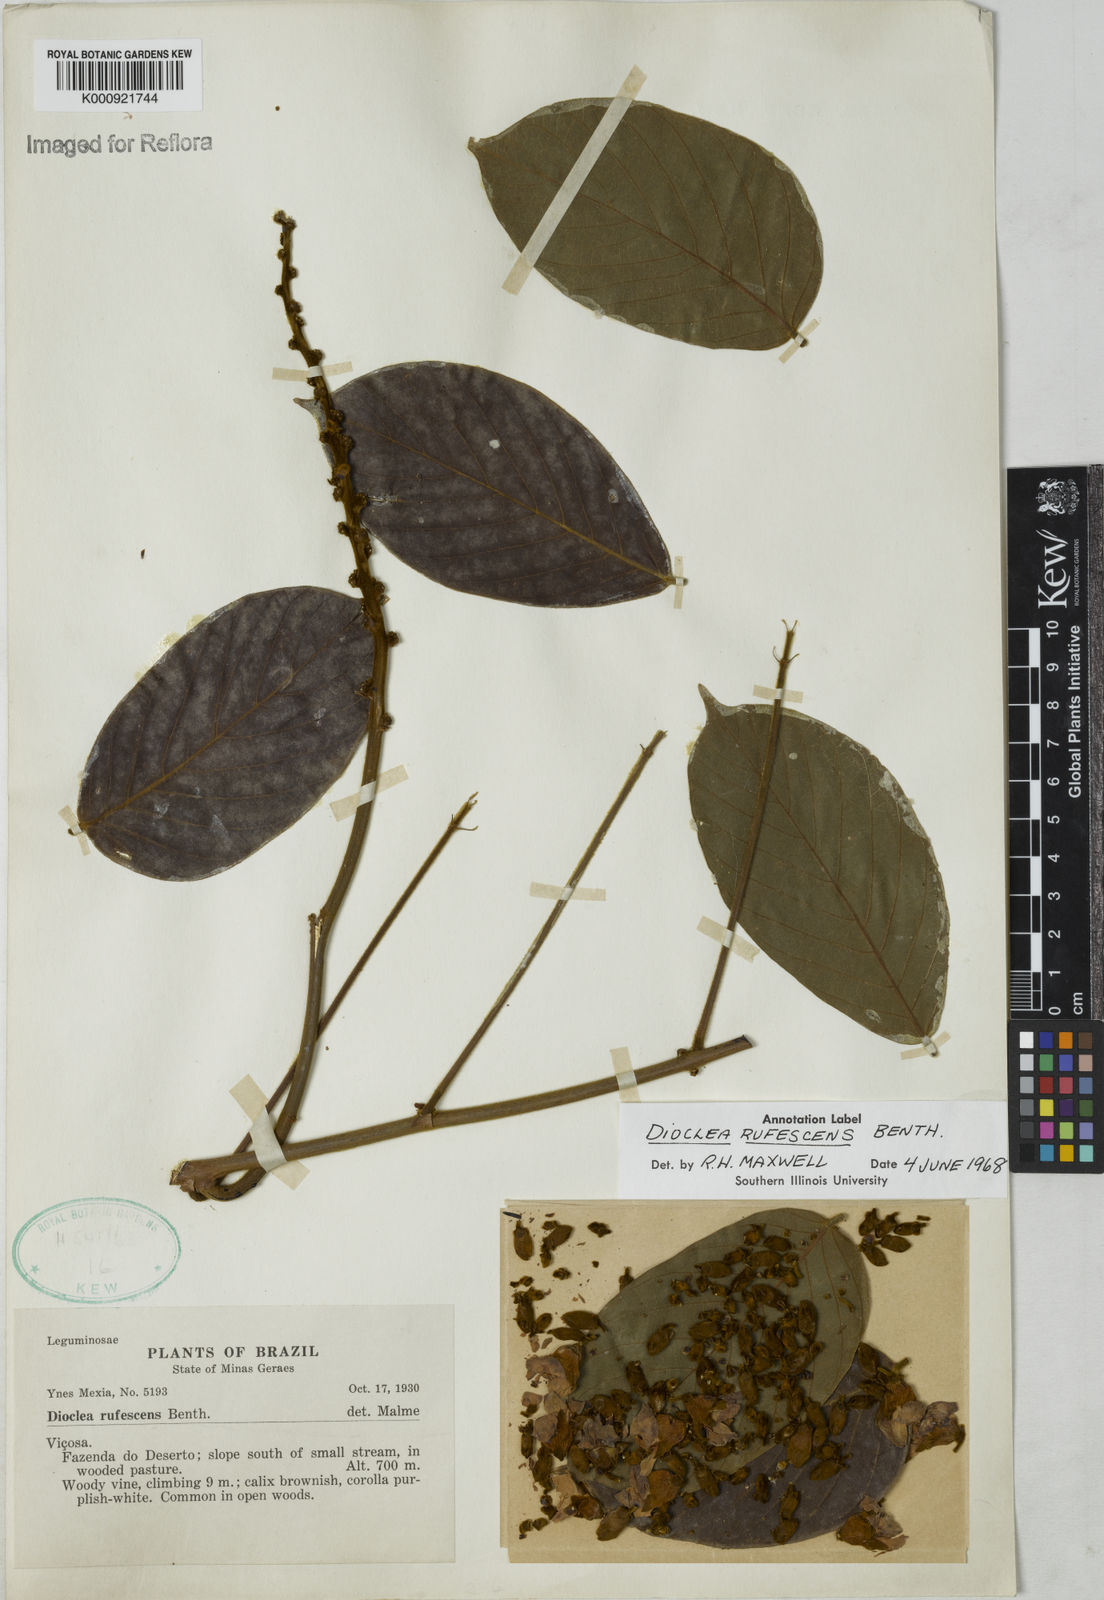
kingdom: Plantae
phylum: Tracheophyta
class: Magnoliopsida
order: Fabales
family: Fabaceae
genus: Macropsychanthus
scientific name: Macropsychanthus rufescens
